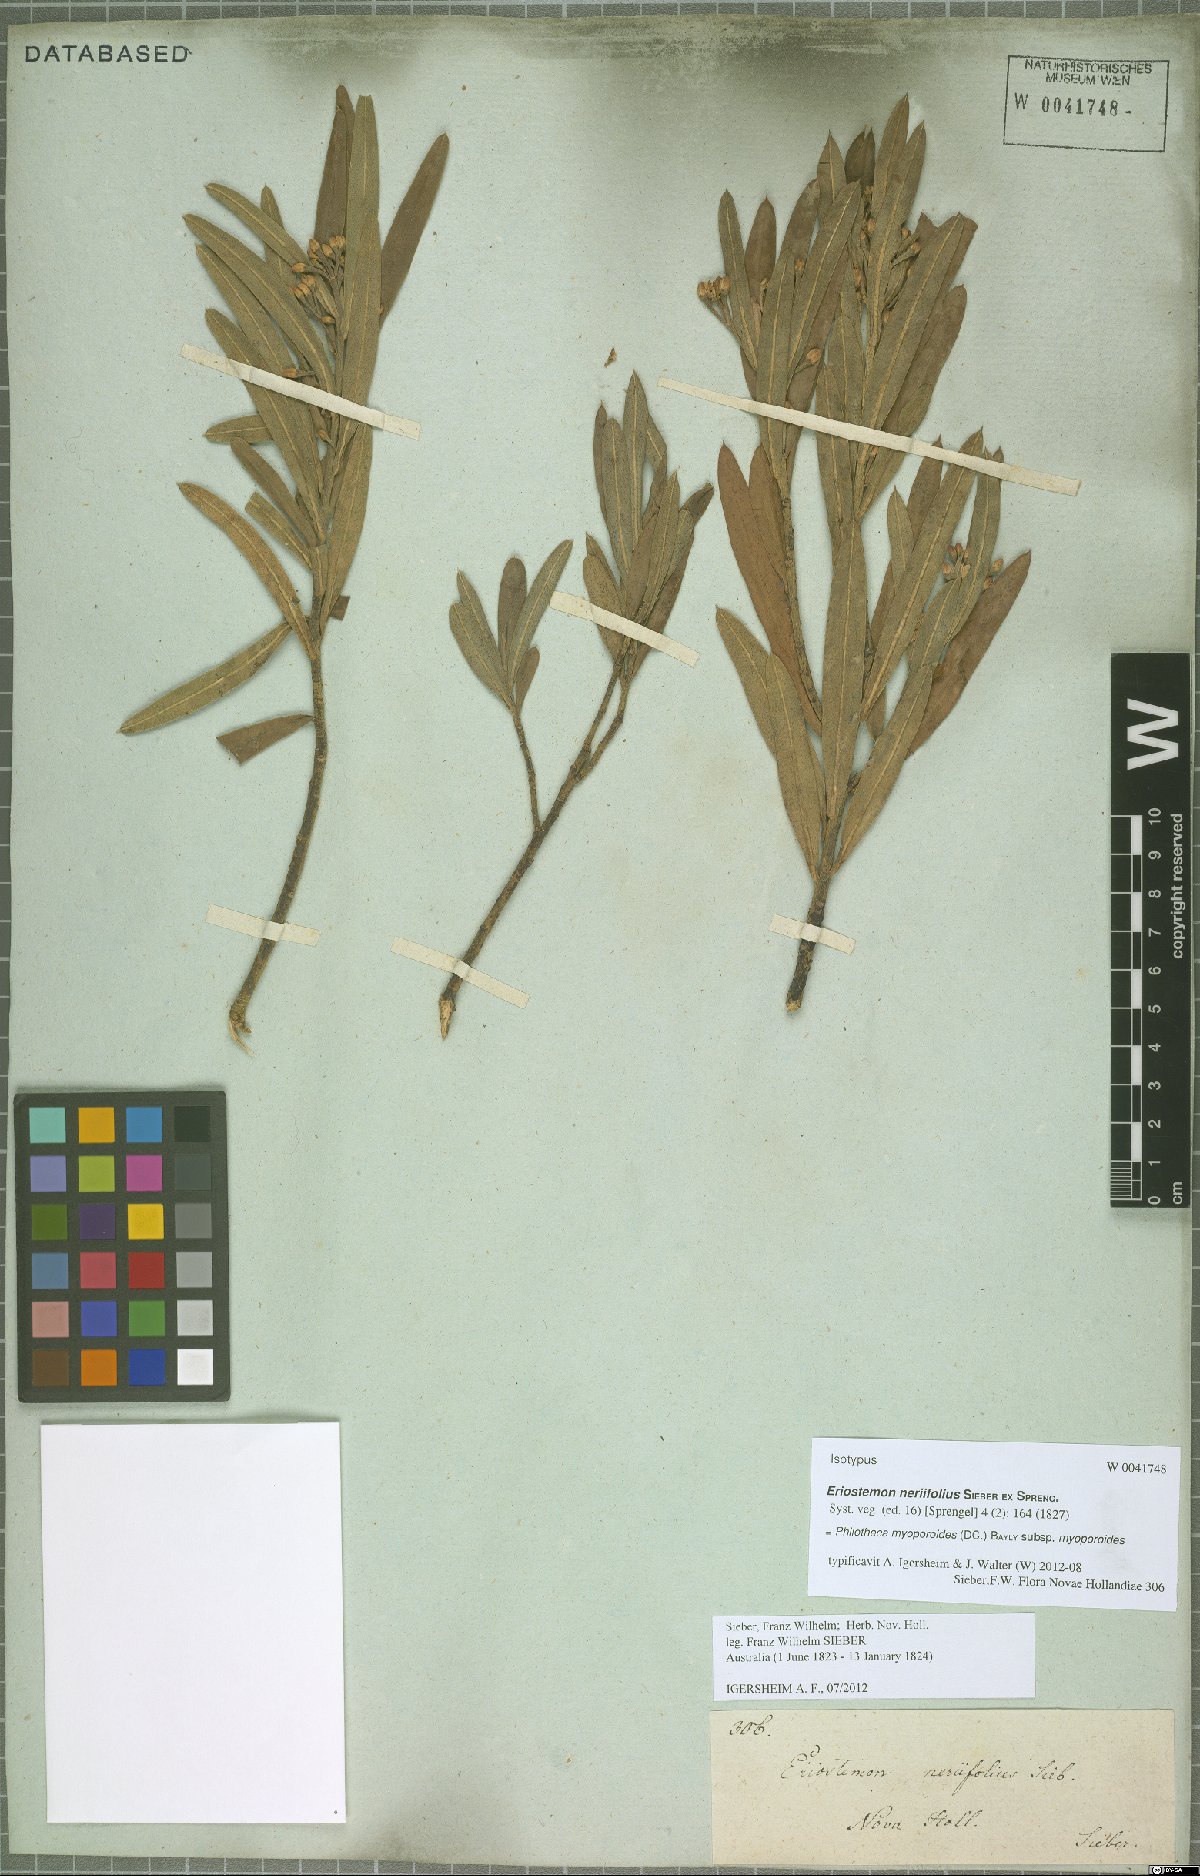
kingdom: Plantae
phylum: Tracheophyta
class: Magnoliopsida
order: Sapindales
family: Rutaceae
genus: Philotheca
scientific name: Philotheca myoporoides
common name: Longleaf waxflower
